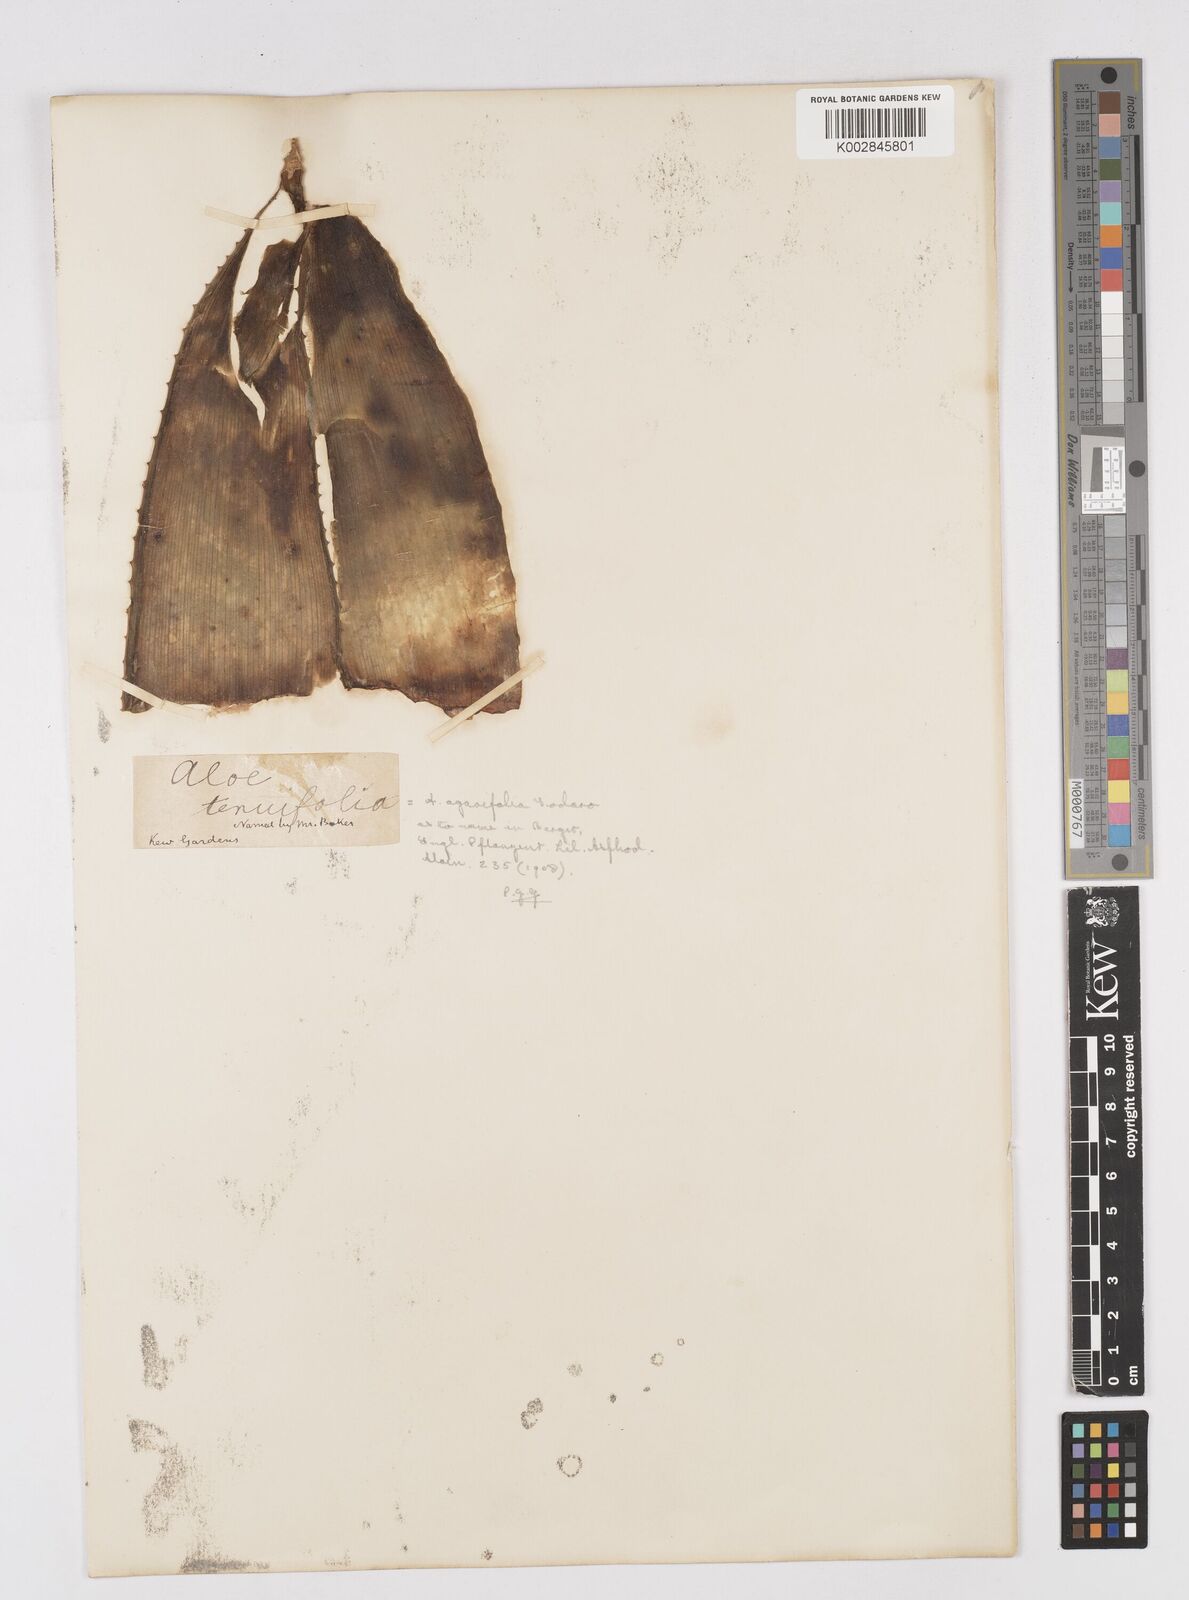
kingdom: Plantae
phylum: Tracheophyta
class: Liliopsida
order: Asparagales
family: Asphodelaceae
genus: Aloe
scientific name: Aloe buettneri
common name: West african aloe
